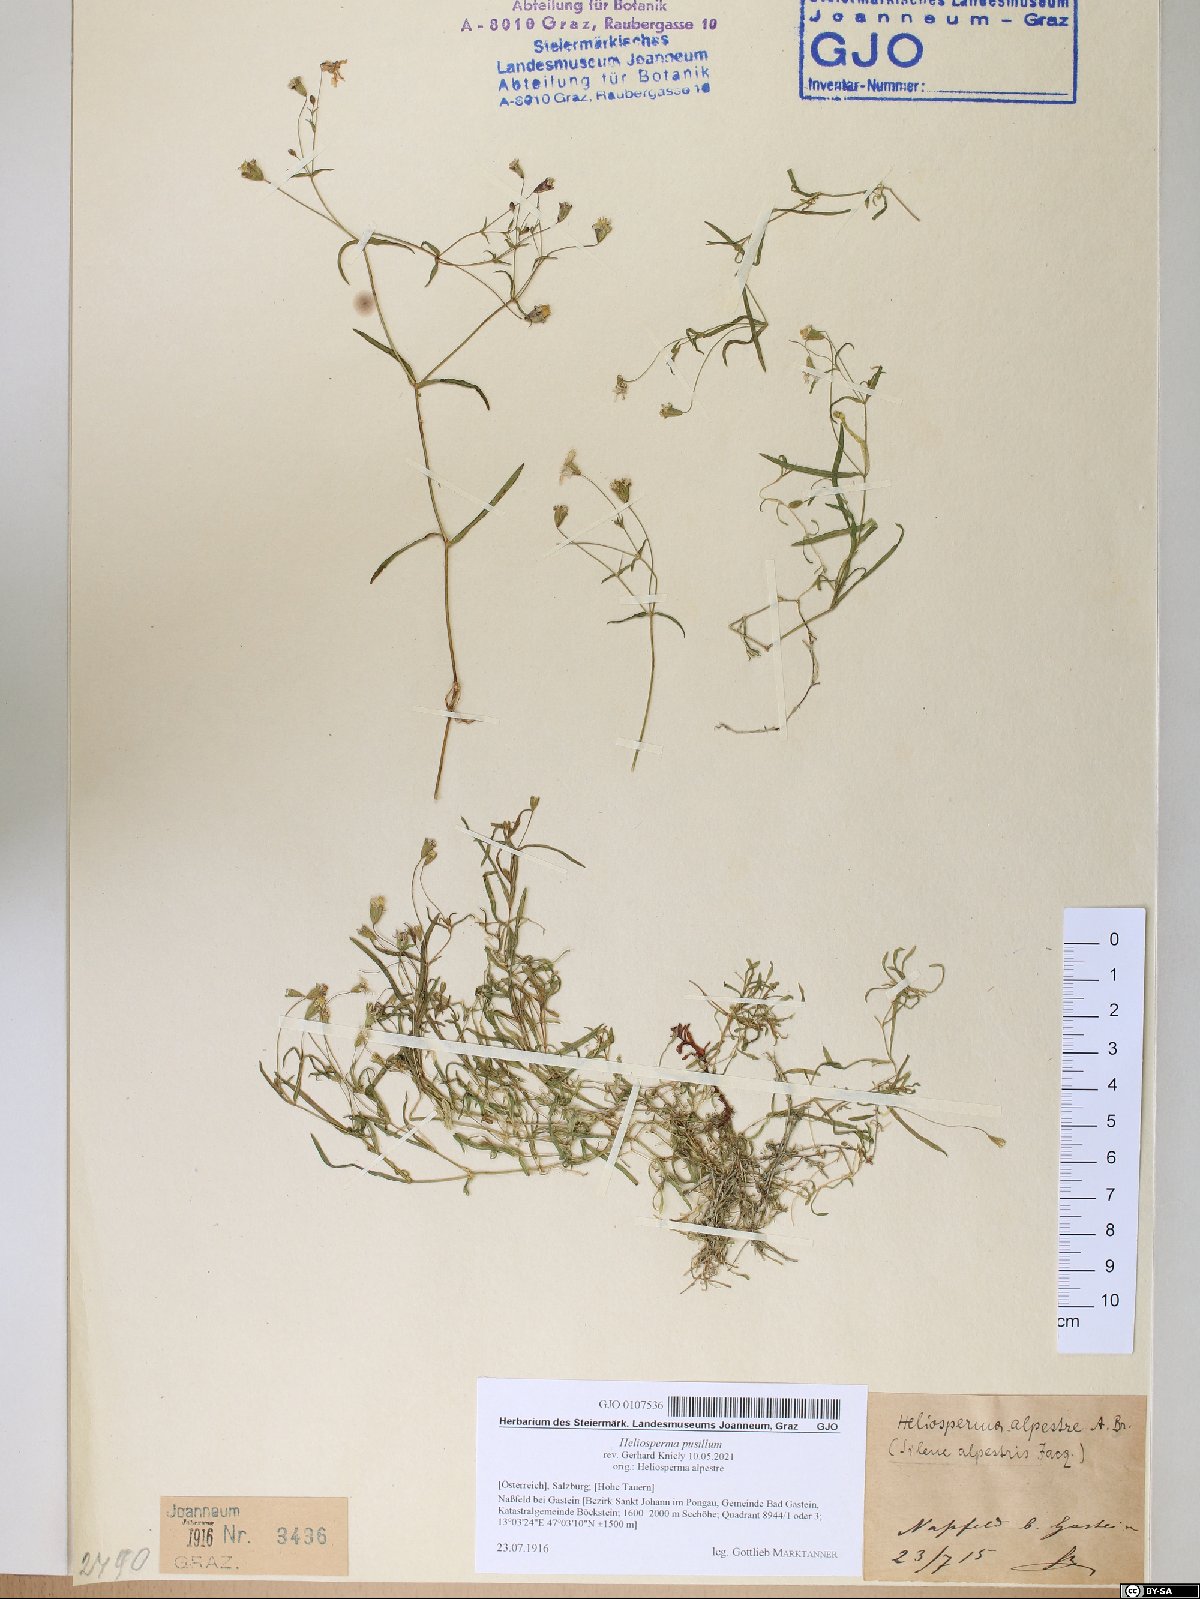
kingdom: Plantae
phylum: Tracheophyta
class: Magnoliopsida
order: Caryophyllales
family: Caryophyllaceae
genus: Heliosperma
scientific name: Heliosperma pusillum
